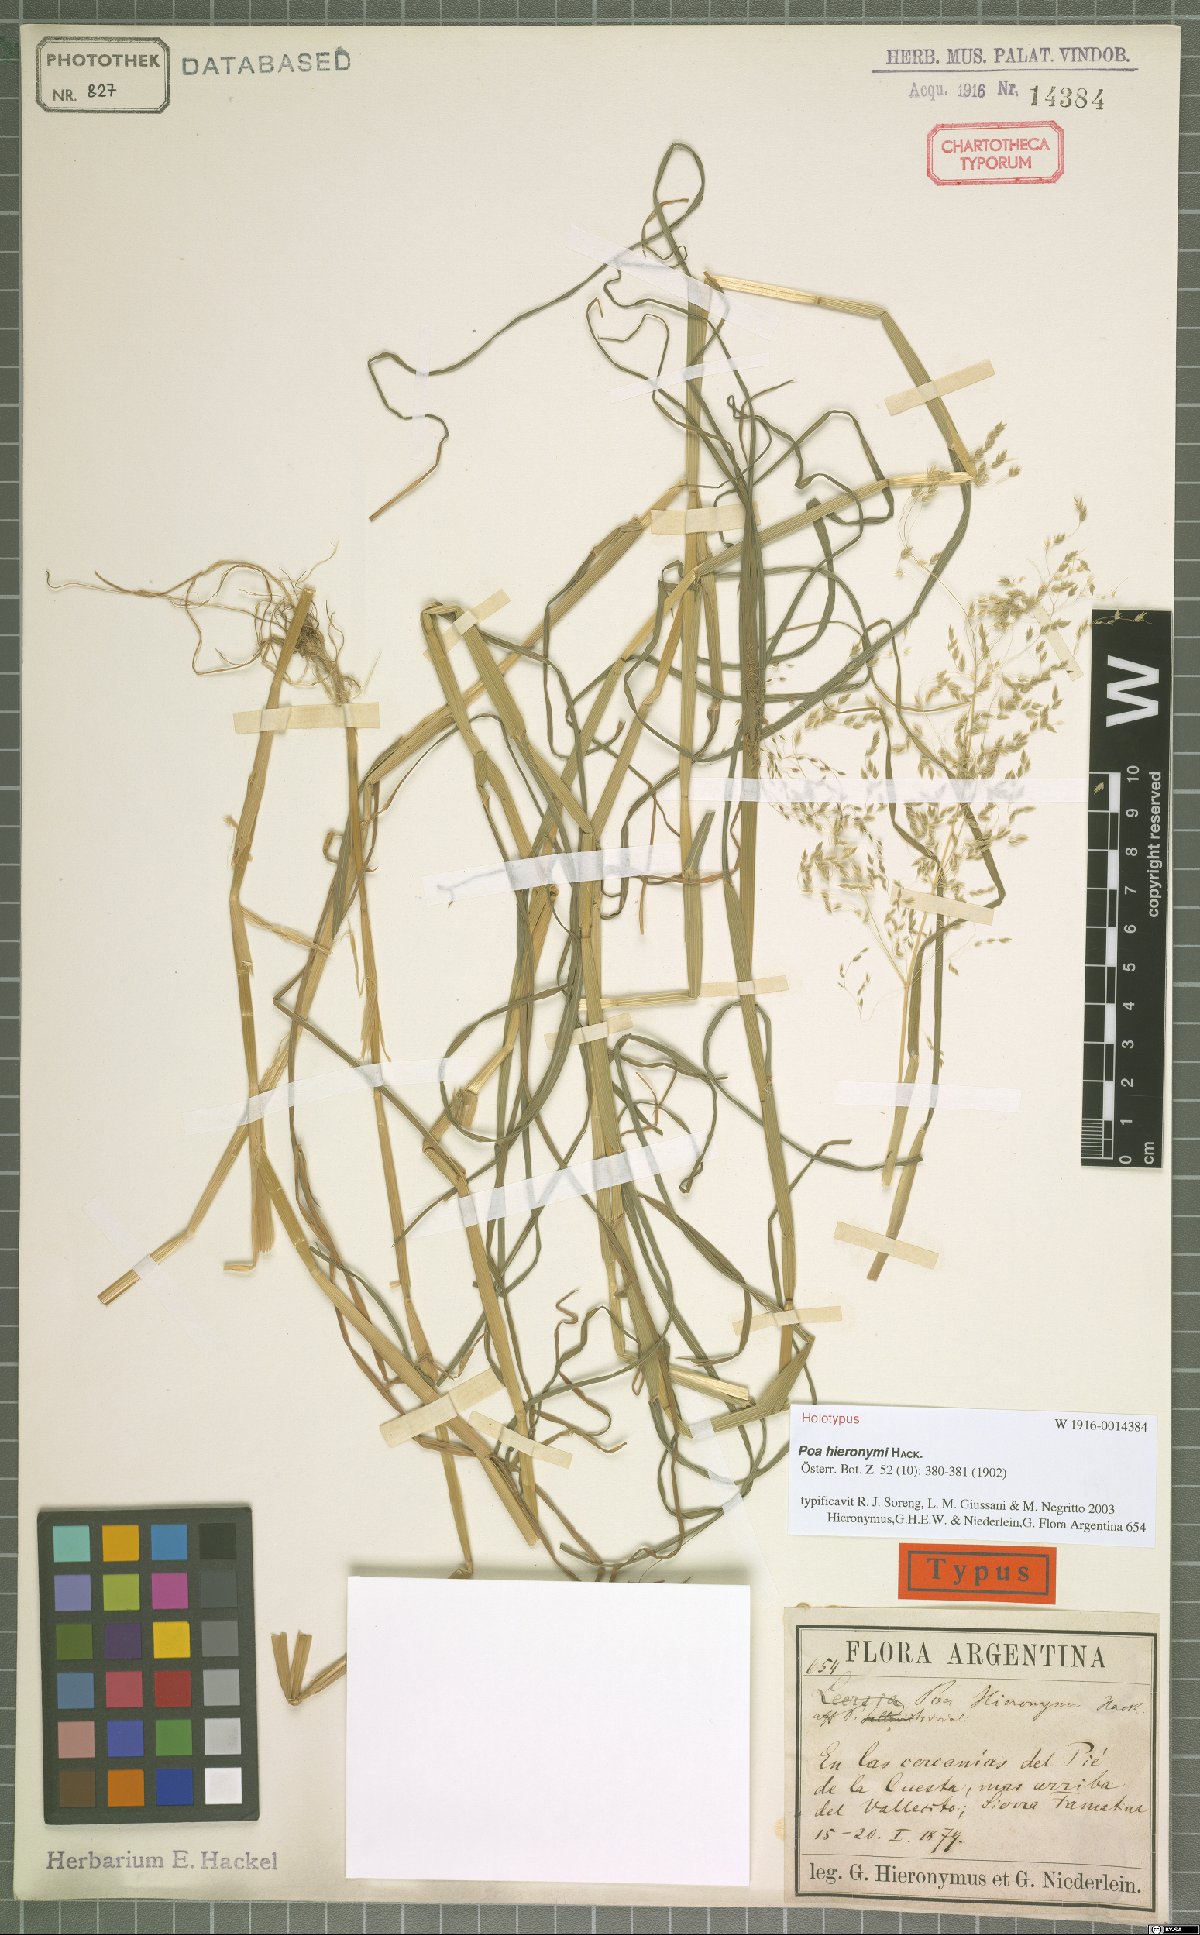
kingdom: Plantae
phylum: Tracheophyta
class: Liliopsida
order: Poales
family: Poaceae
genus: Poa
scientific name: Poa hieronymi
